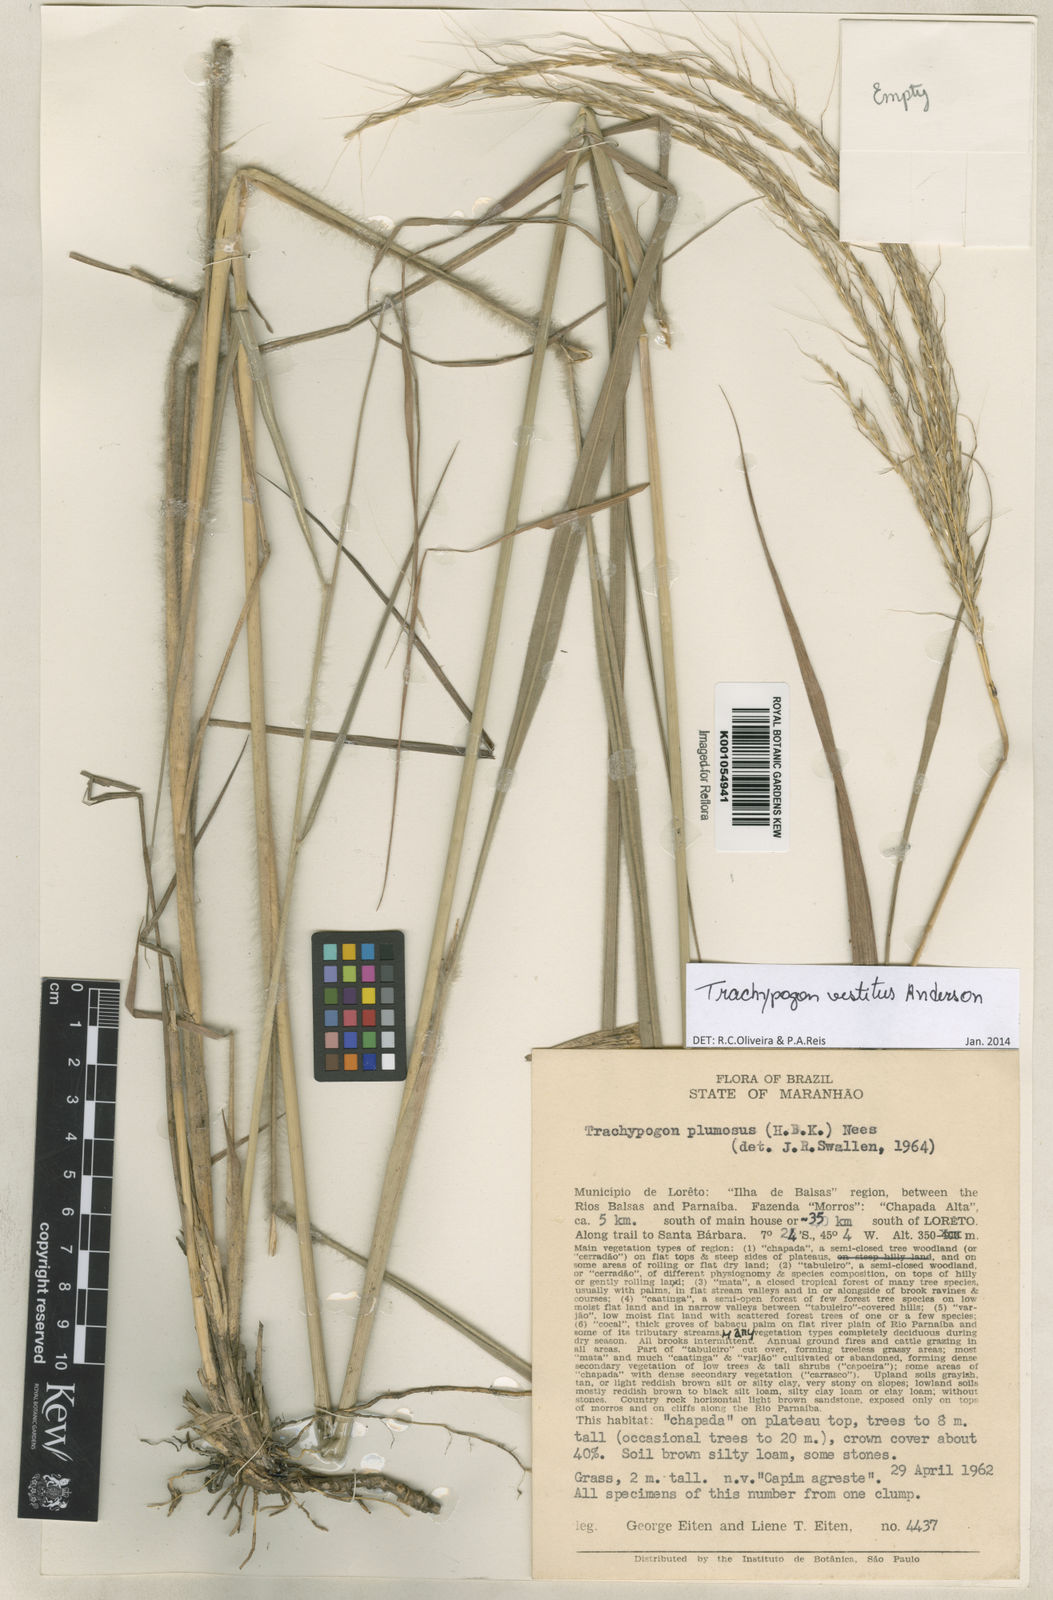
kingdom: Plantae
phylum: Tracheophyta
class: Liliopsida
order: Poales
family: Poaceae
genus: Trachypogon
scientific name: Trachypogon vestitus
